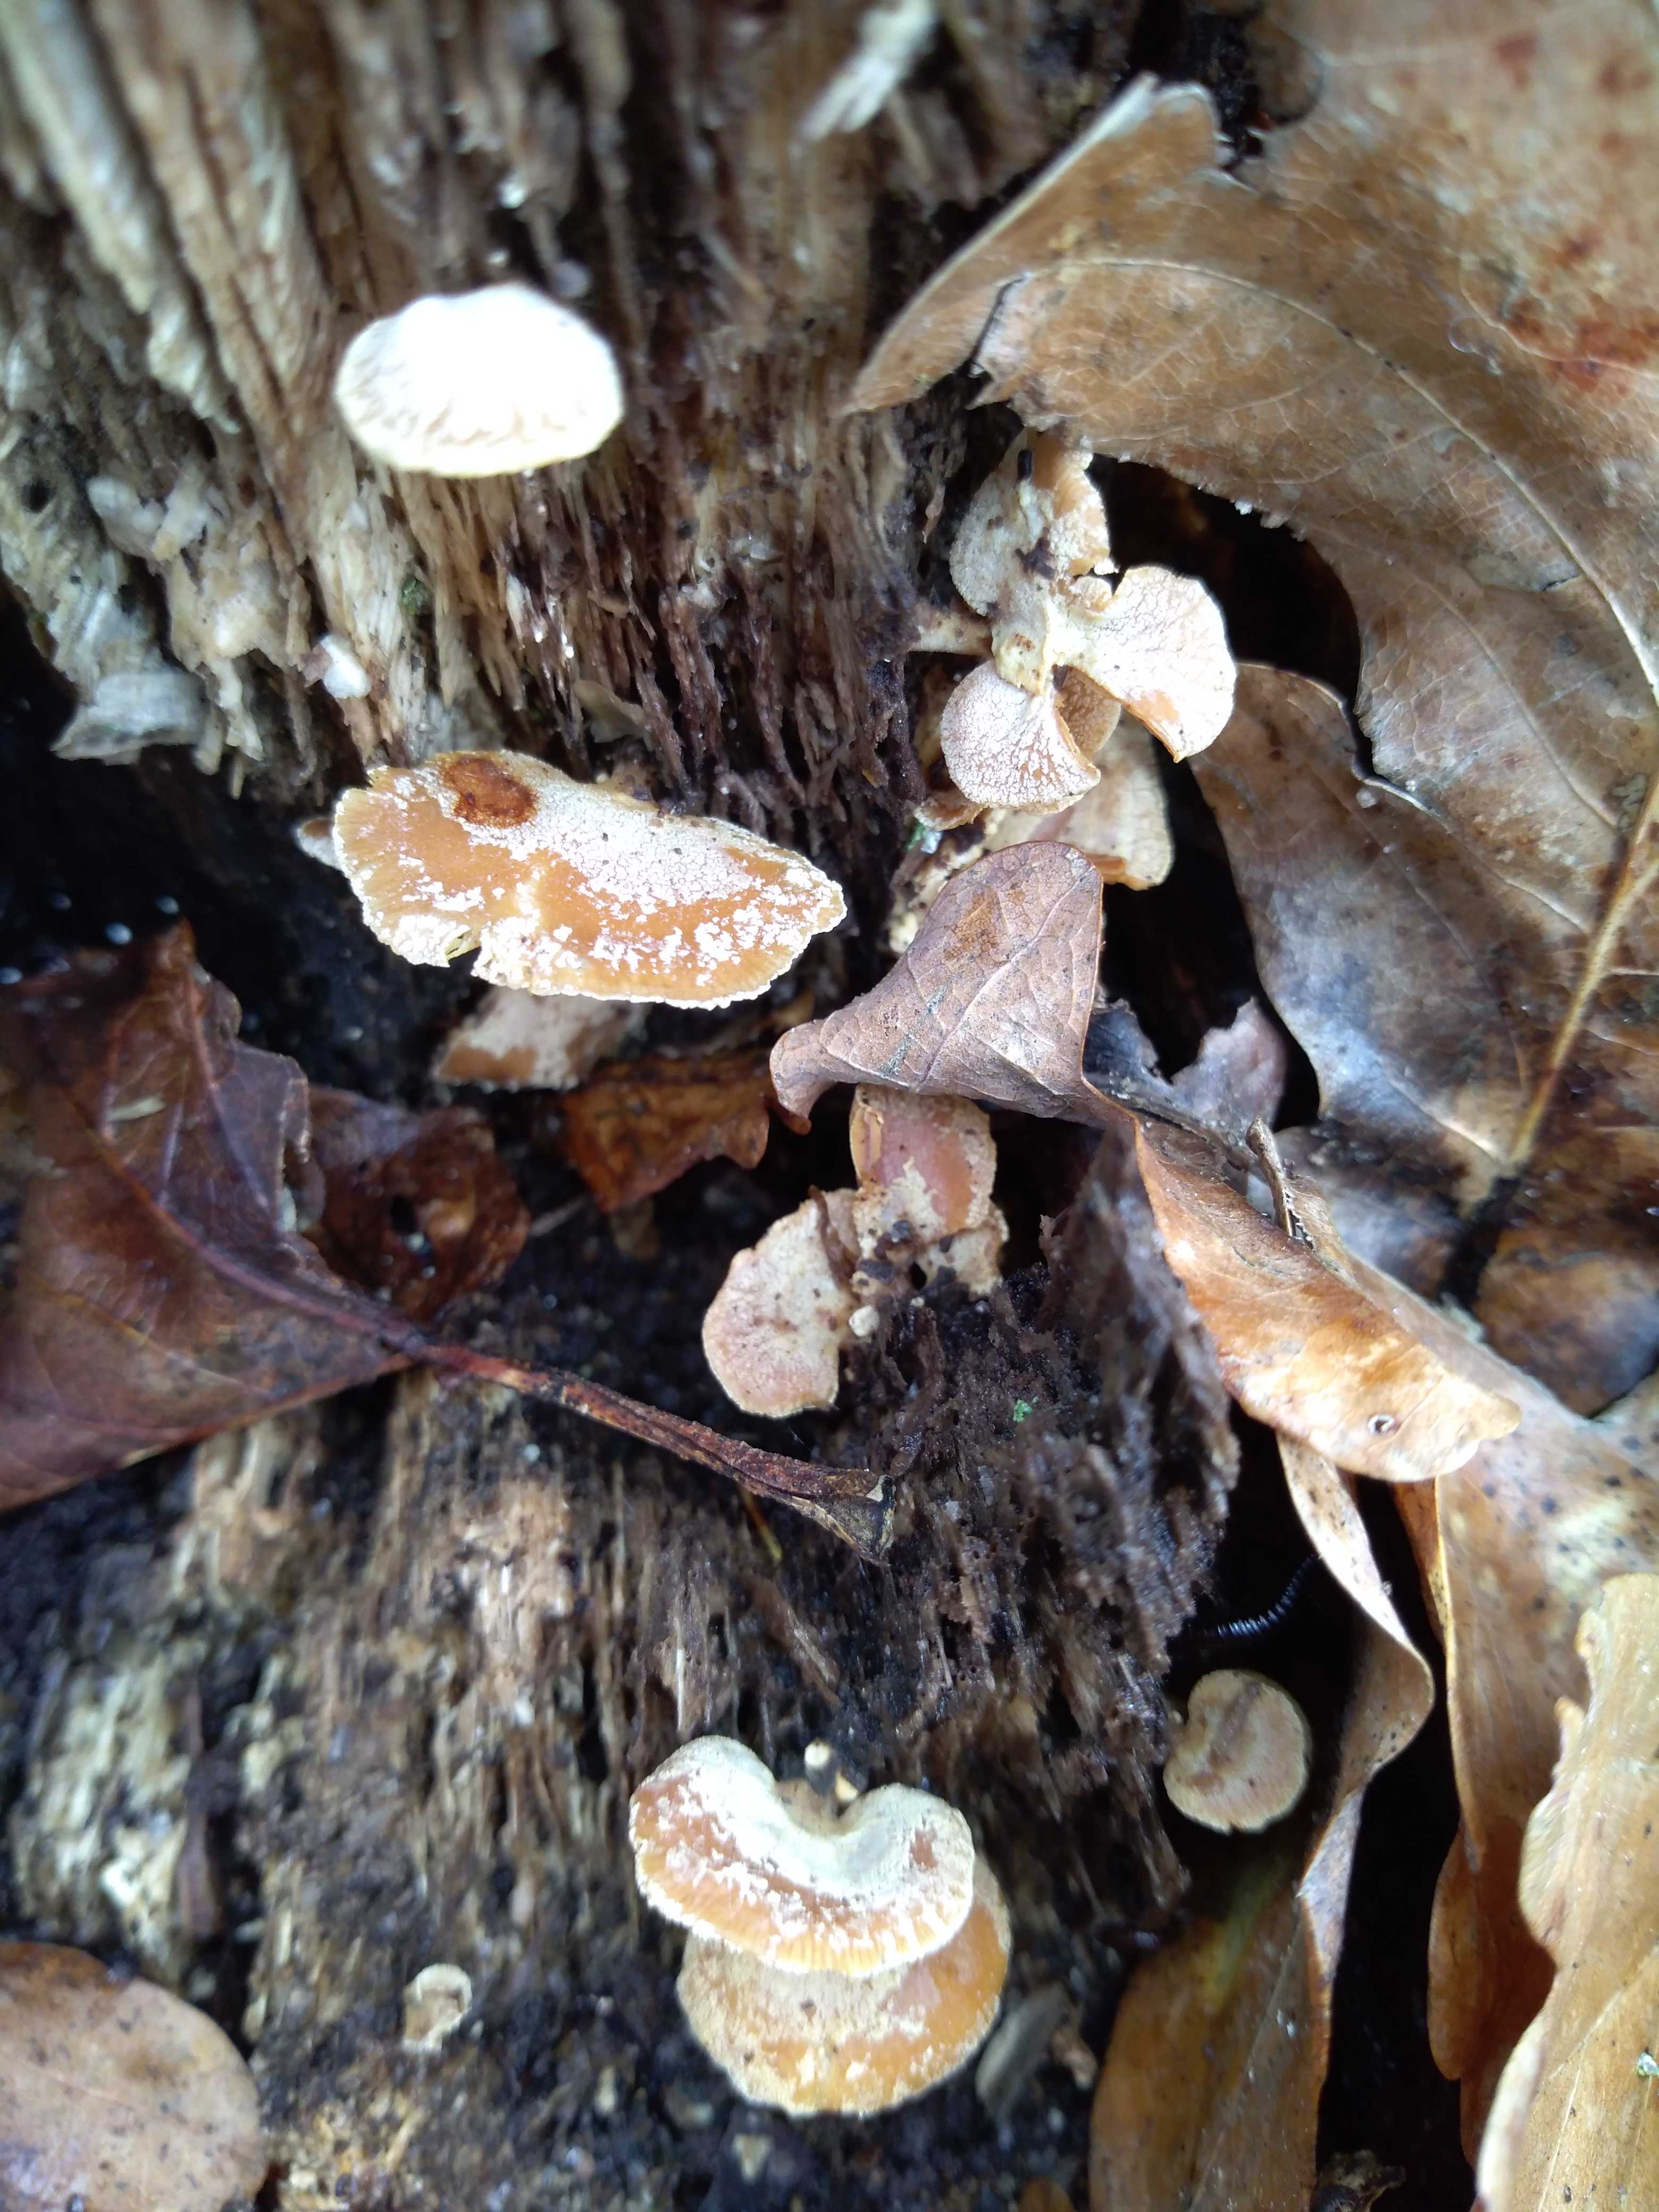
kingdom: Fungi
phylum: Basidiomycota
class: Agaricomycetes
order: Agaricales
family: Mycenaceae
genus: Panellus
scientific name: Panellus stipticus
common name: kliddet epaulethat
